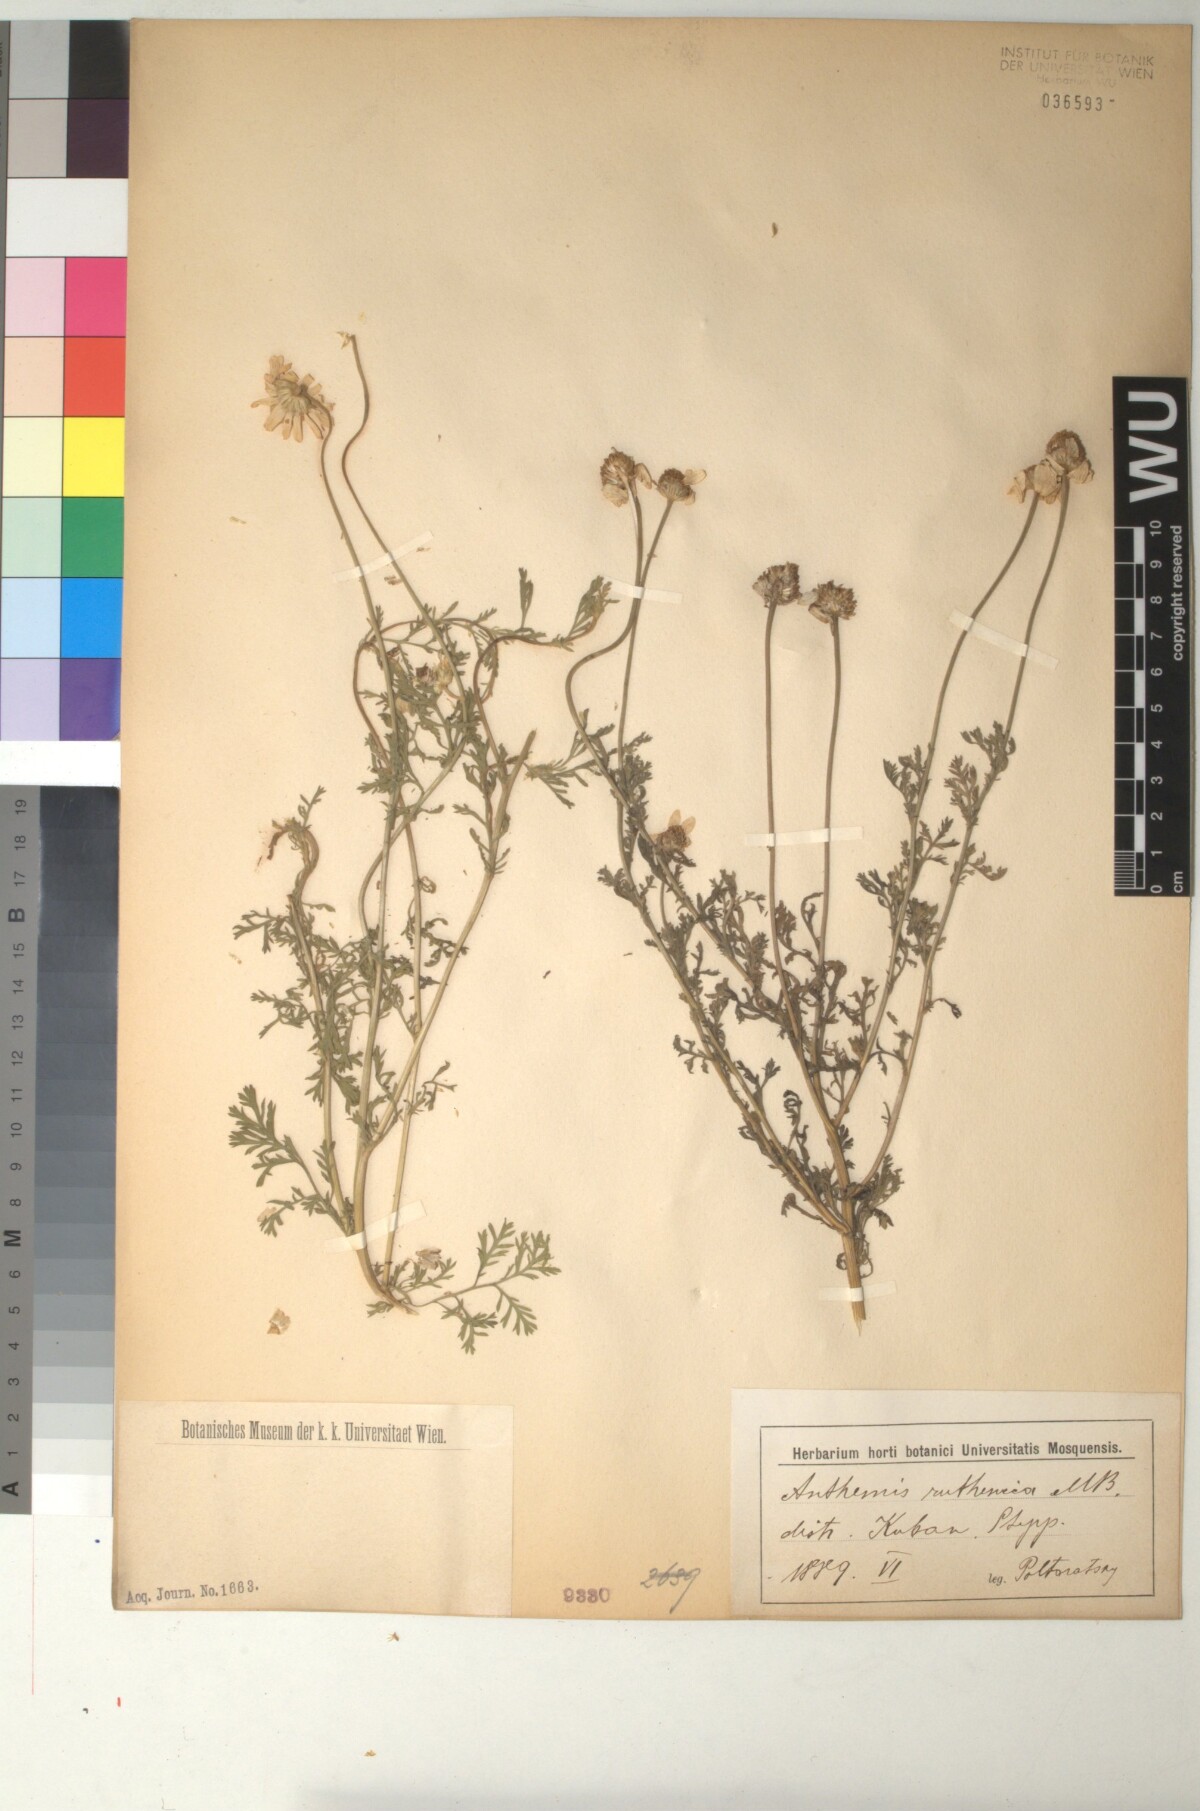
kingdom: Plantae
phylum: Tracheophyta
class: Magnoliopsida
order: Asterales
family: Asteraceae
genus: Anthemis
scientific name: Anthemis ruthenica
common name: Eastern chamomile
